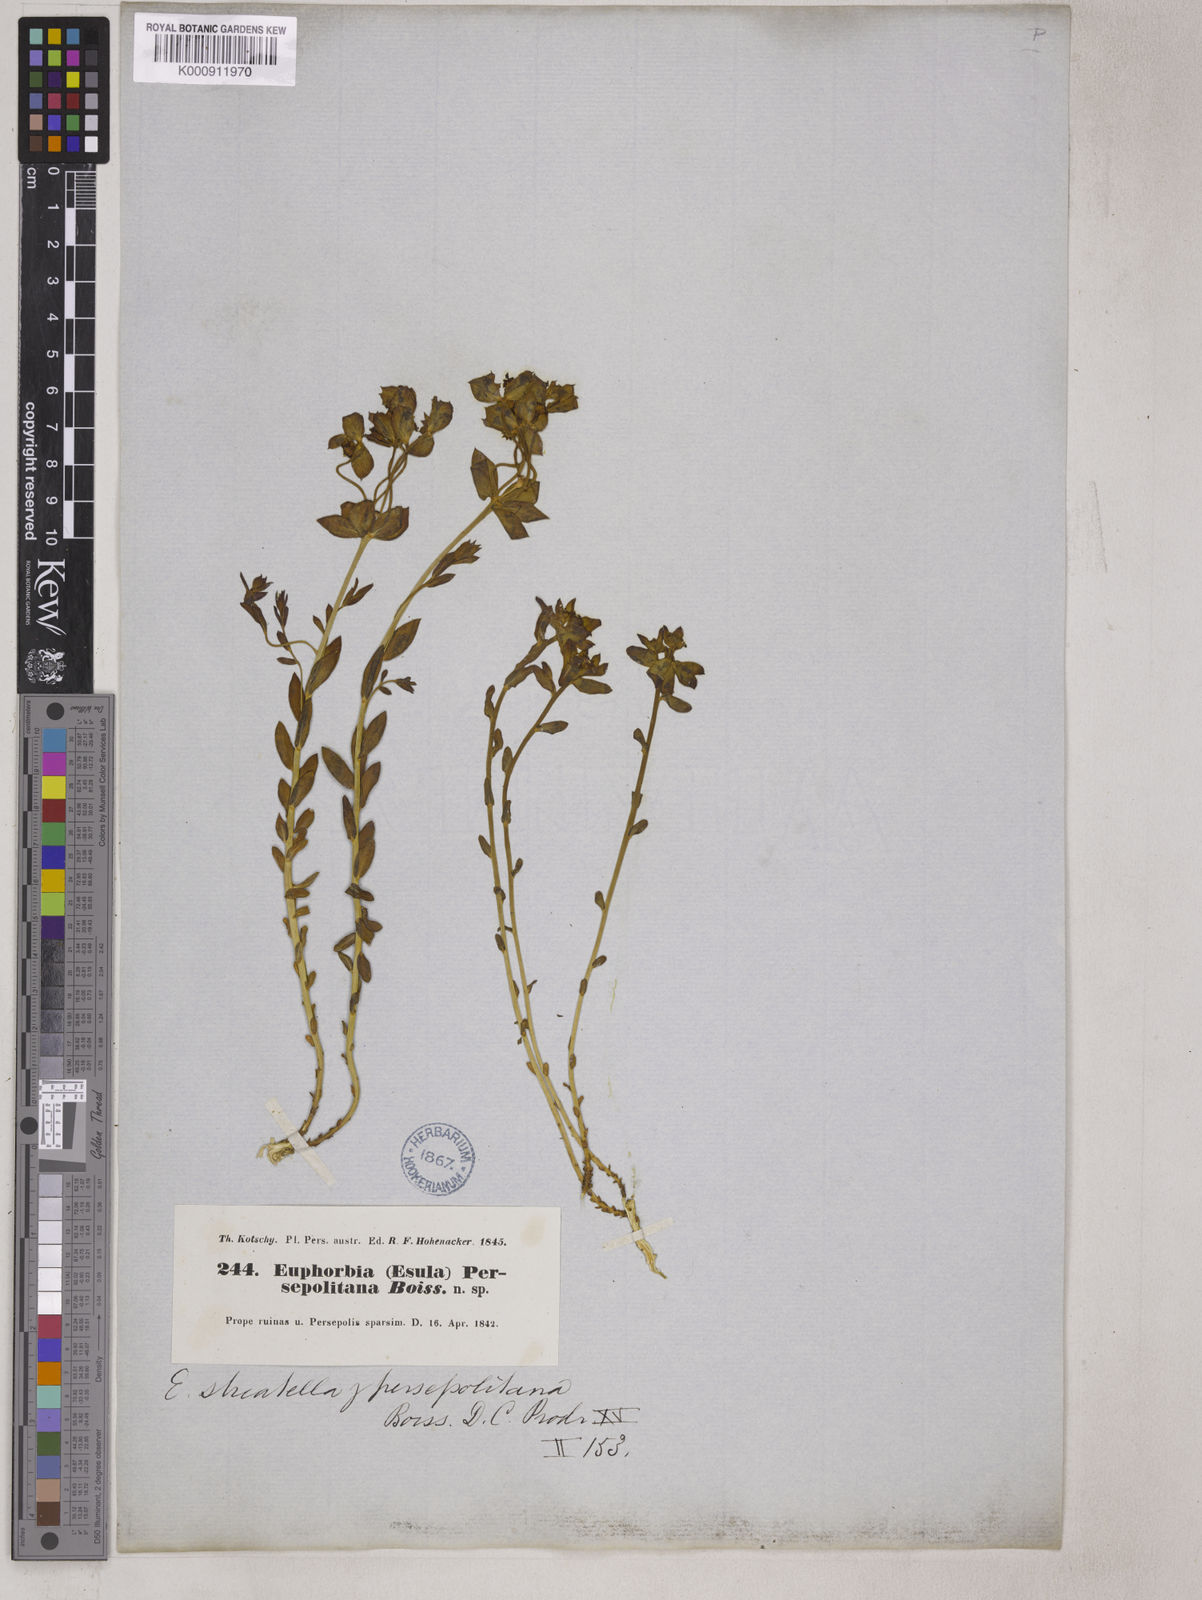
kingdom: Plantae
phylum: Tracheophyta
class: Magnoliopsida
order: Malpighiales
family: Euphorbiaceae
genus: Euphorbia
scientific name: Euphorbia microsciadia
